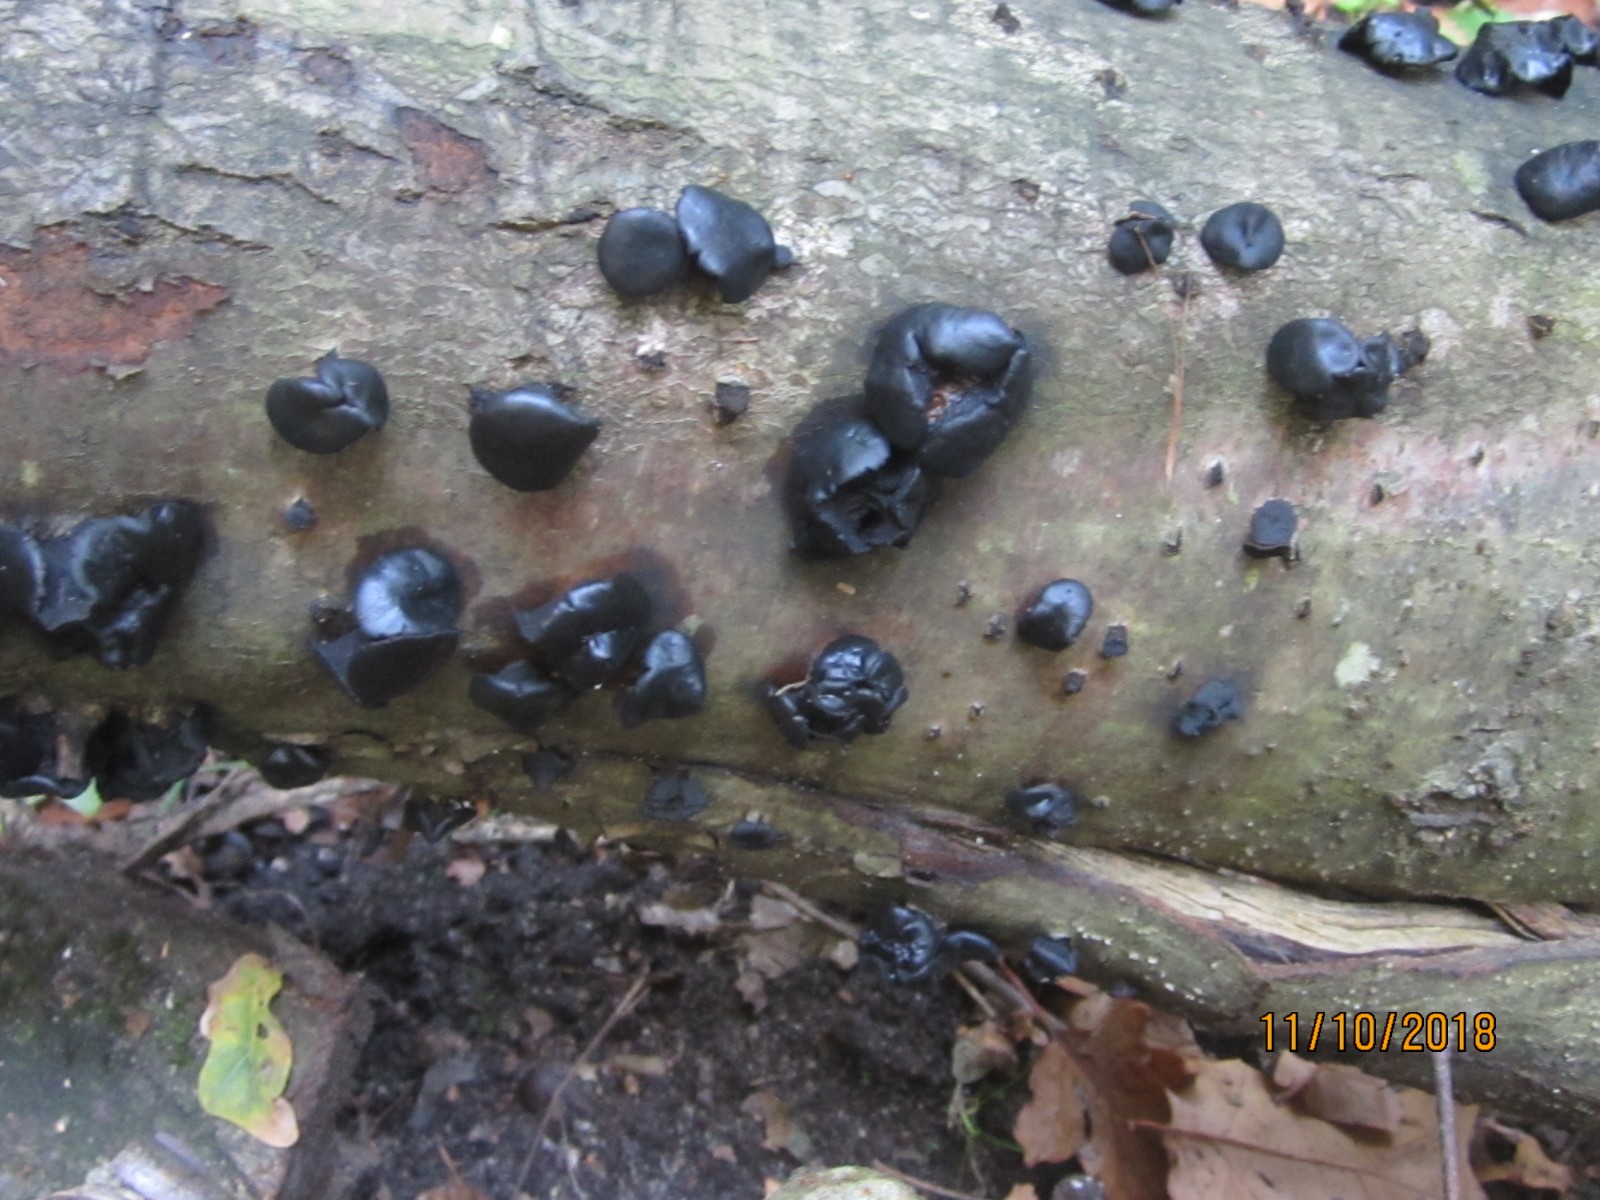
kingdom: Fungi
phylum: Ascomycota
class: Leotiomycetes
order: Phacidiales
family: Phacidiaceae
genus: Bulgaria
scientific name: Bulgaria inquinans
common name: afsmittende topsvamp
